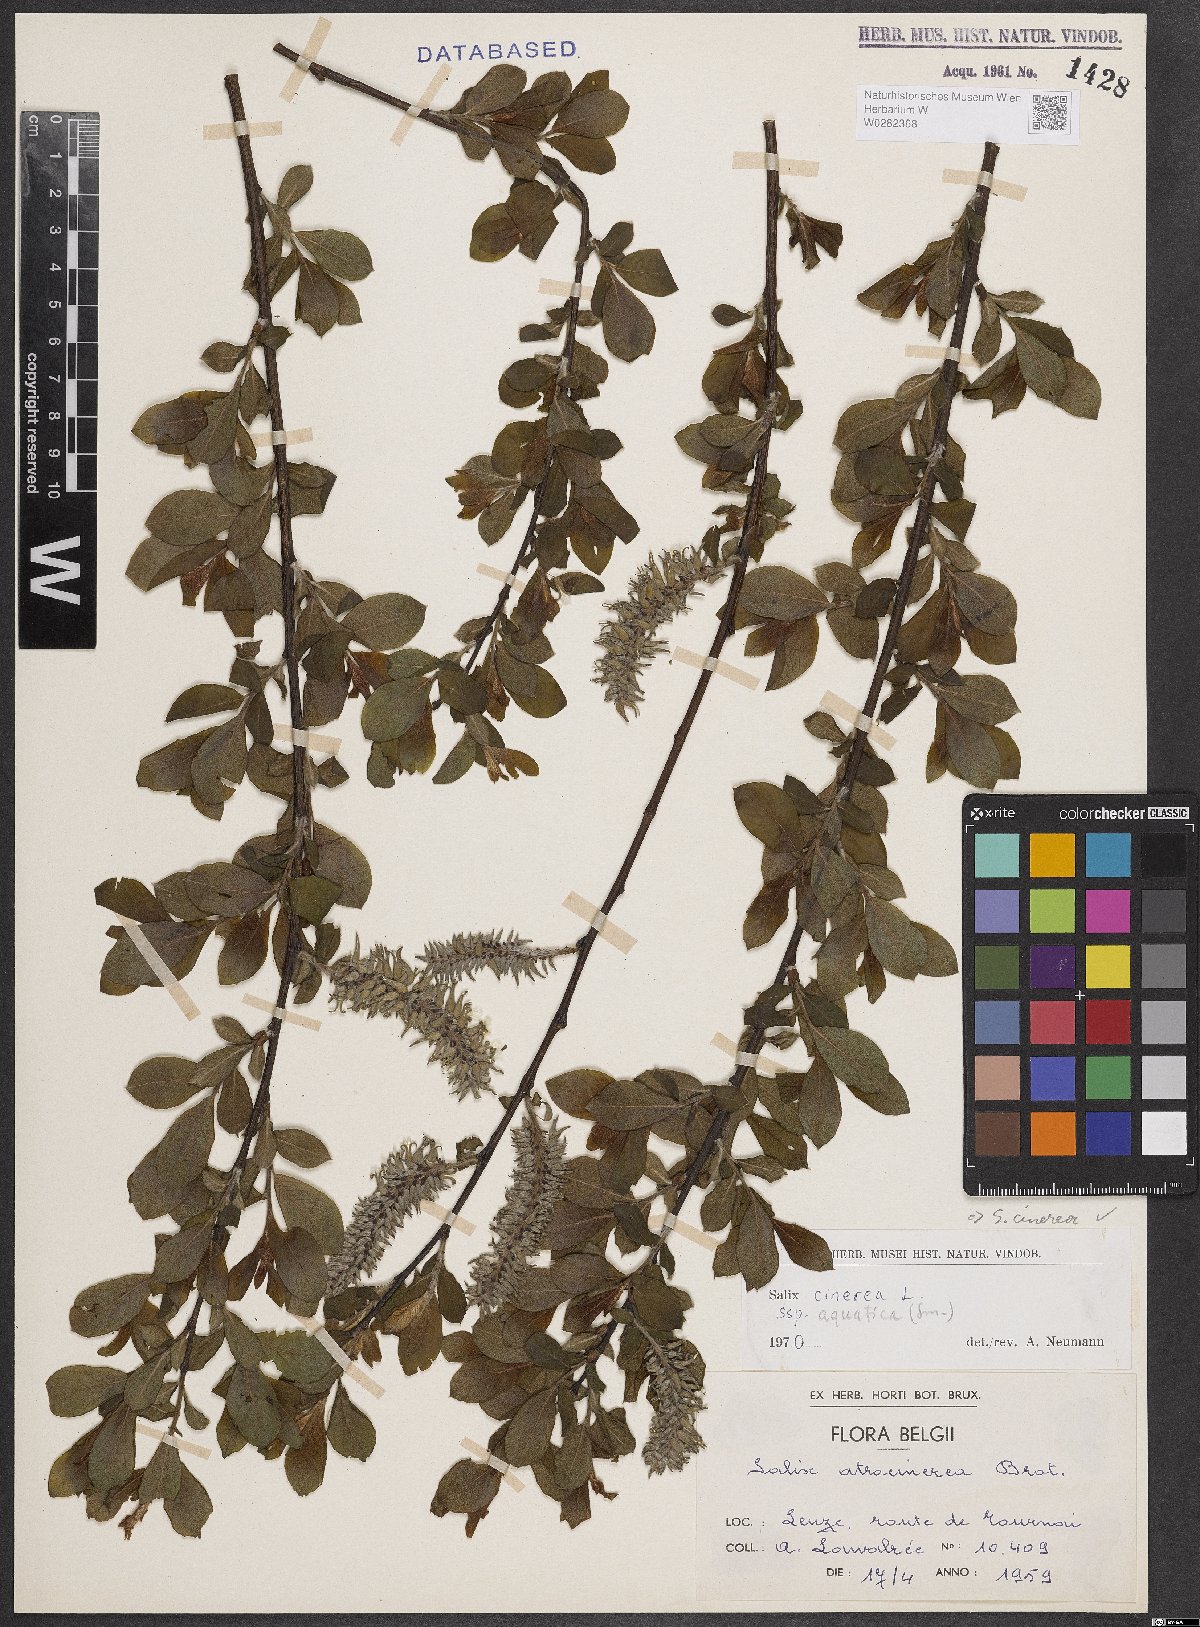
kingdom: Plantae
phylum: Tracheophyta
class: Magnoliopsida
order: Malpighiales
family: Salicaceae
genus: Salix
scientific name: Salix cinerea
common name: Common sallow
